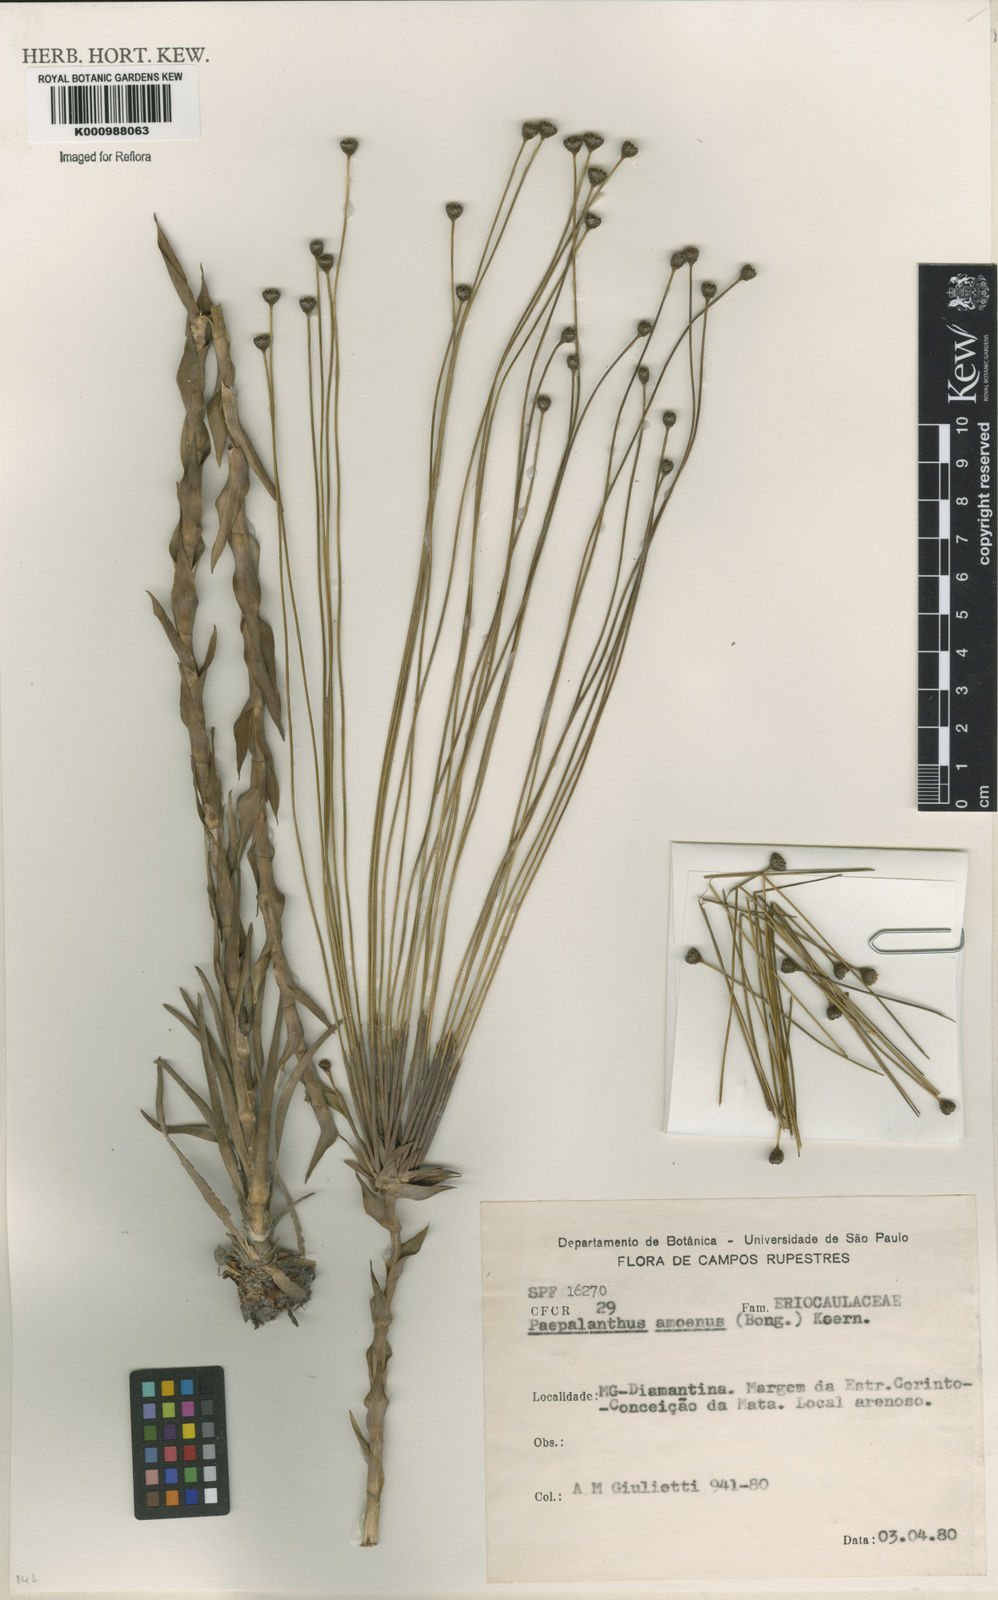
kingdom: Plantae
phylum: Tracheophyta
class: Liliopsida
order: Poales
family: Eriocaulaceae
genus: Paepalanthus
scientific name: Paepalanthus
